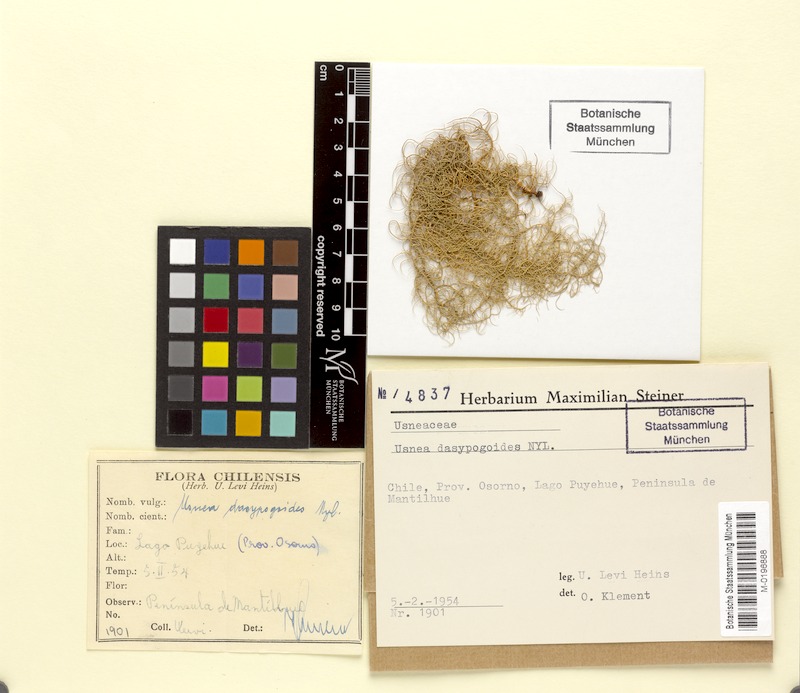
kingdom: Fungi
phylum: Ascomycota
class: Lecanoromycetes
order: Lecanorales
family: Parmeliaceae
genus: Bryoria
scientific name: Bryoria bicolor
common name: Electric horsehair lichen
